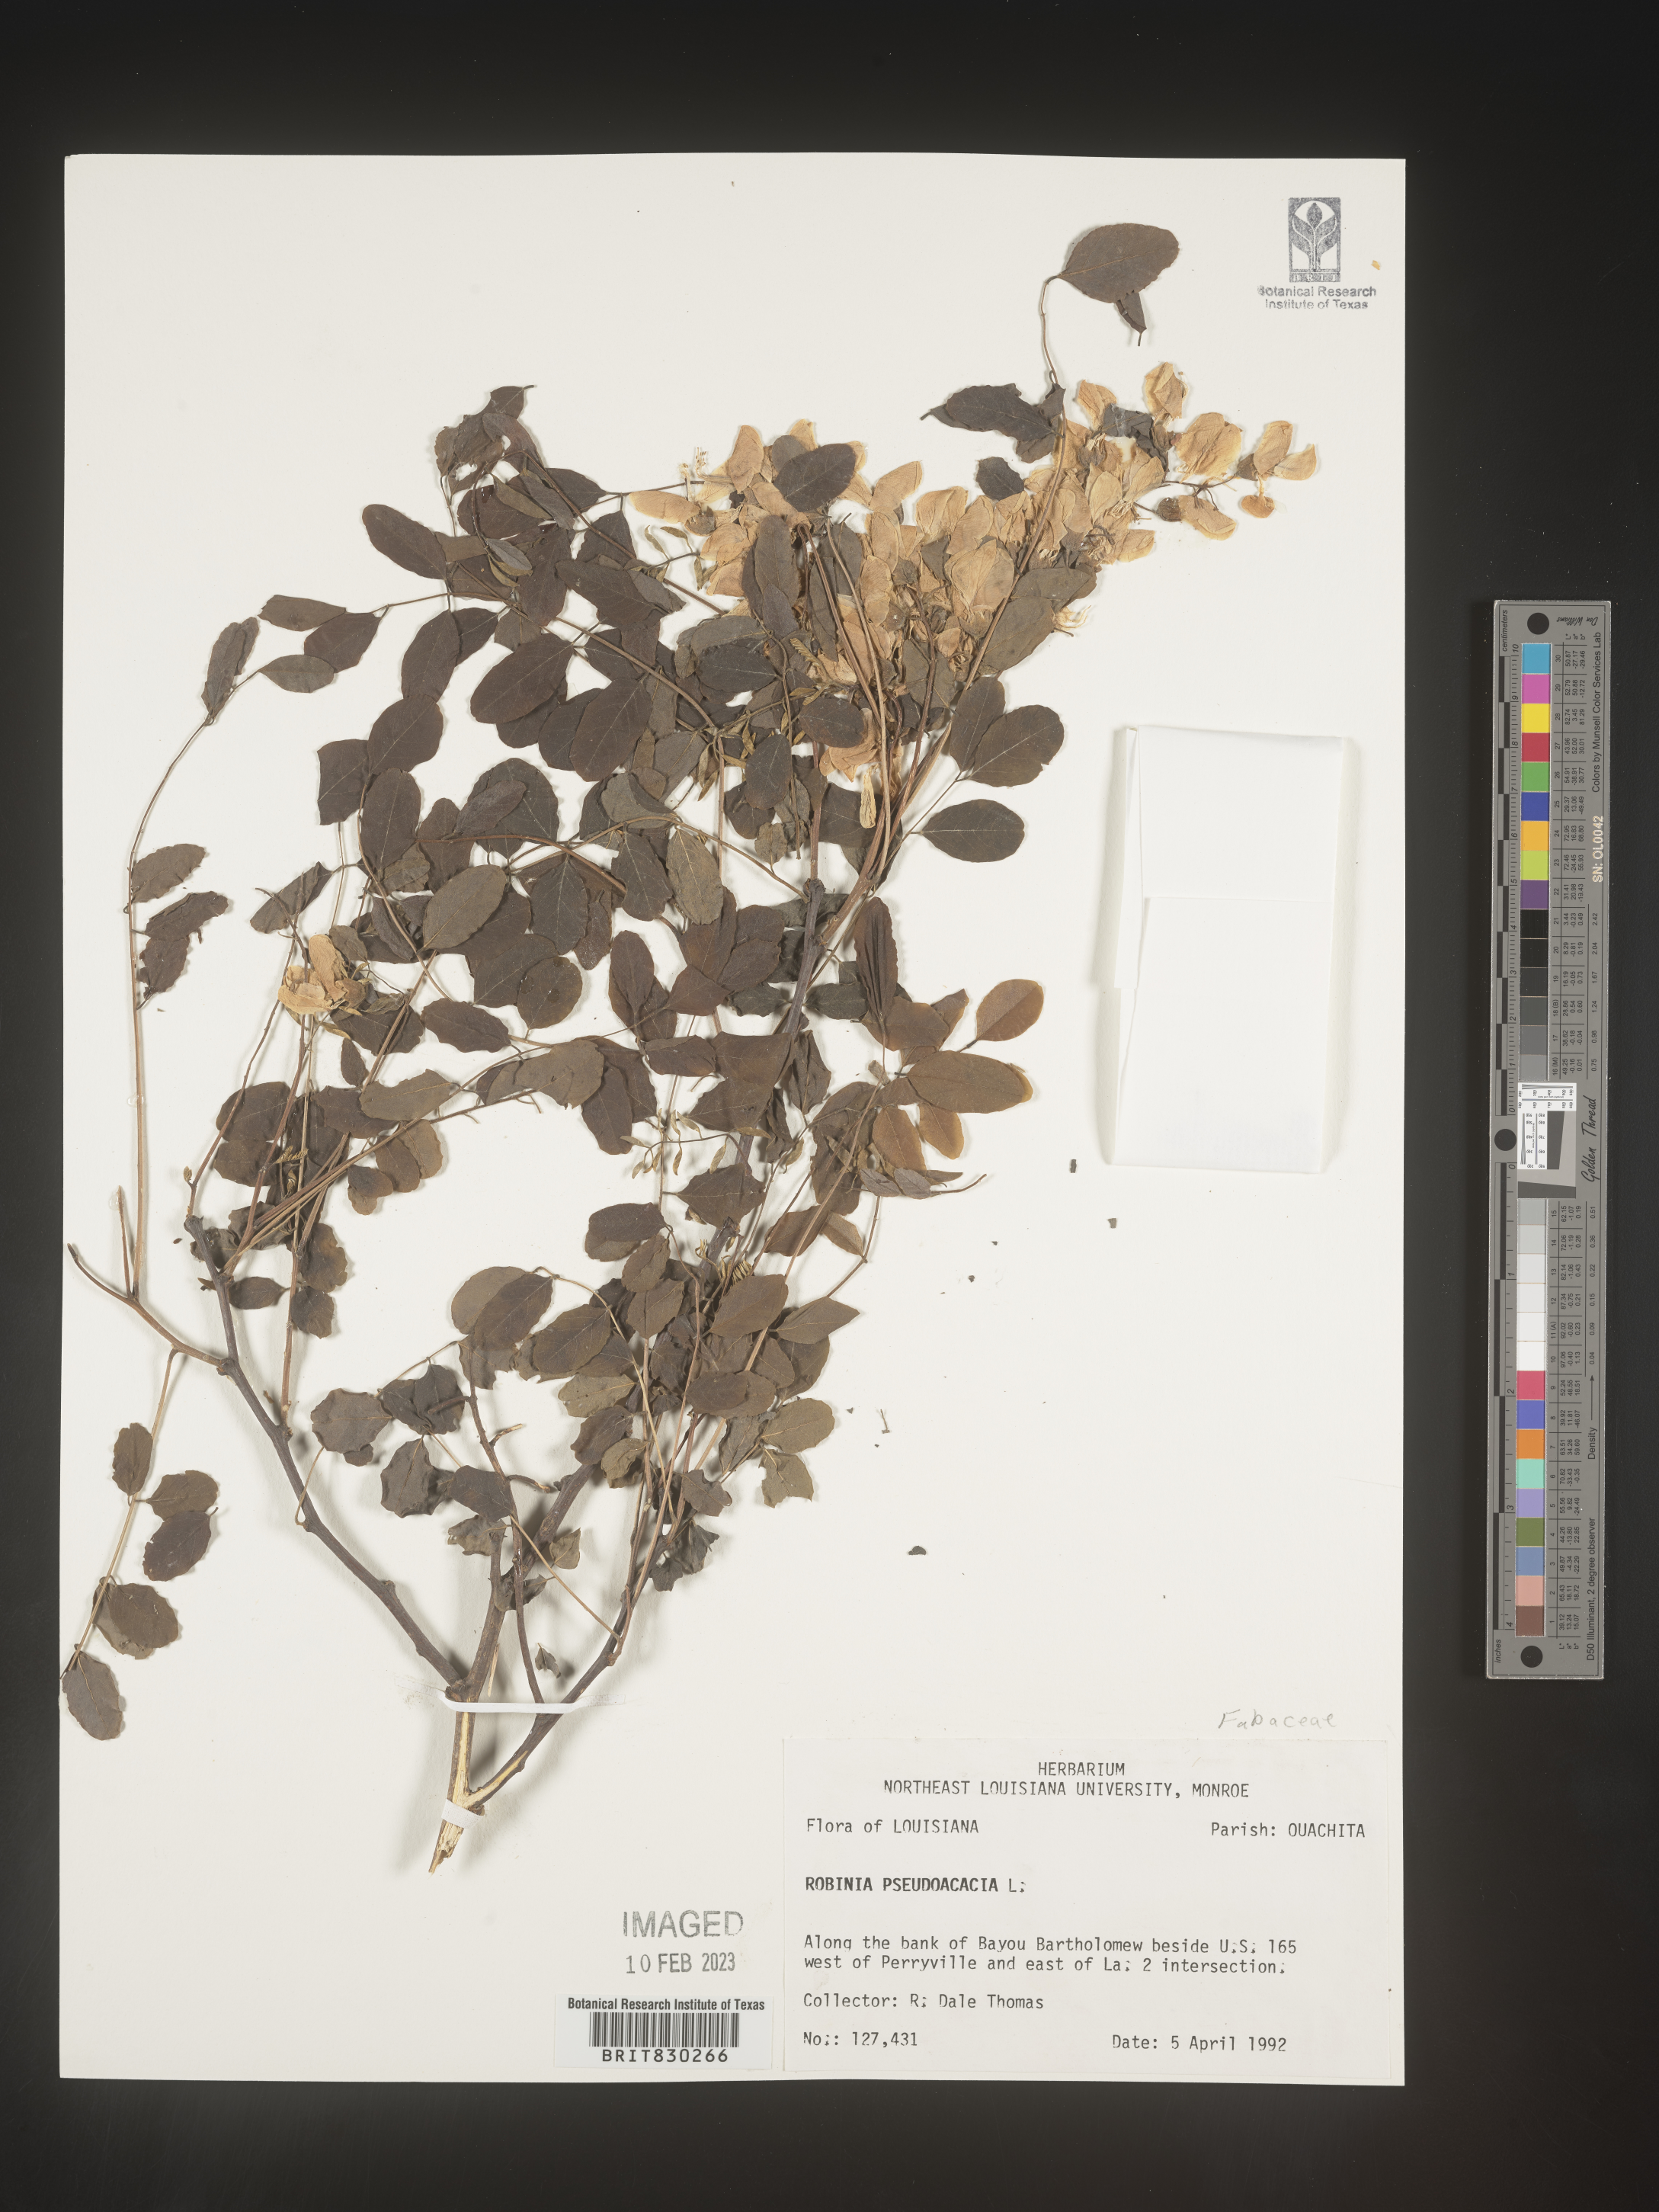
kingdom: Plantae
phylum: Tracheophyta
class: Magnoliopsida
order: Fabales
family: Fabaceae
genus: Robinia
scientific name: Robinia pseudoacacia
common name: Black locust
